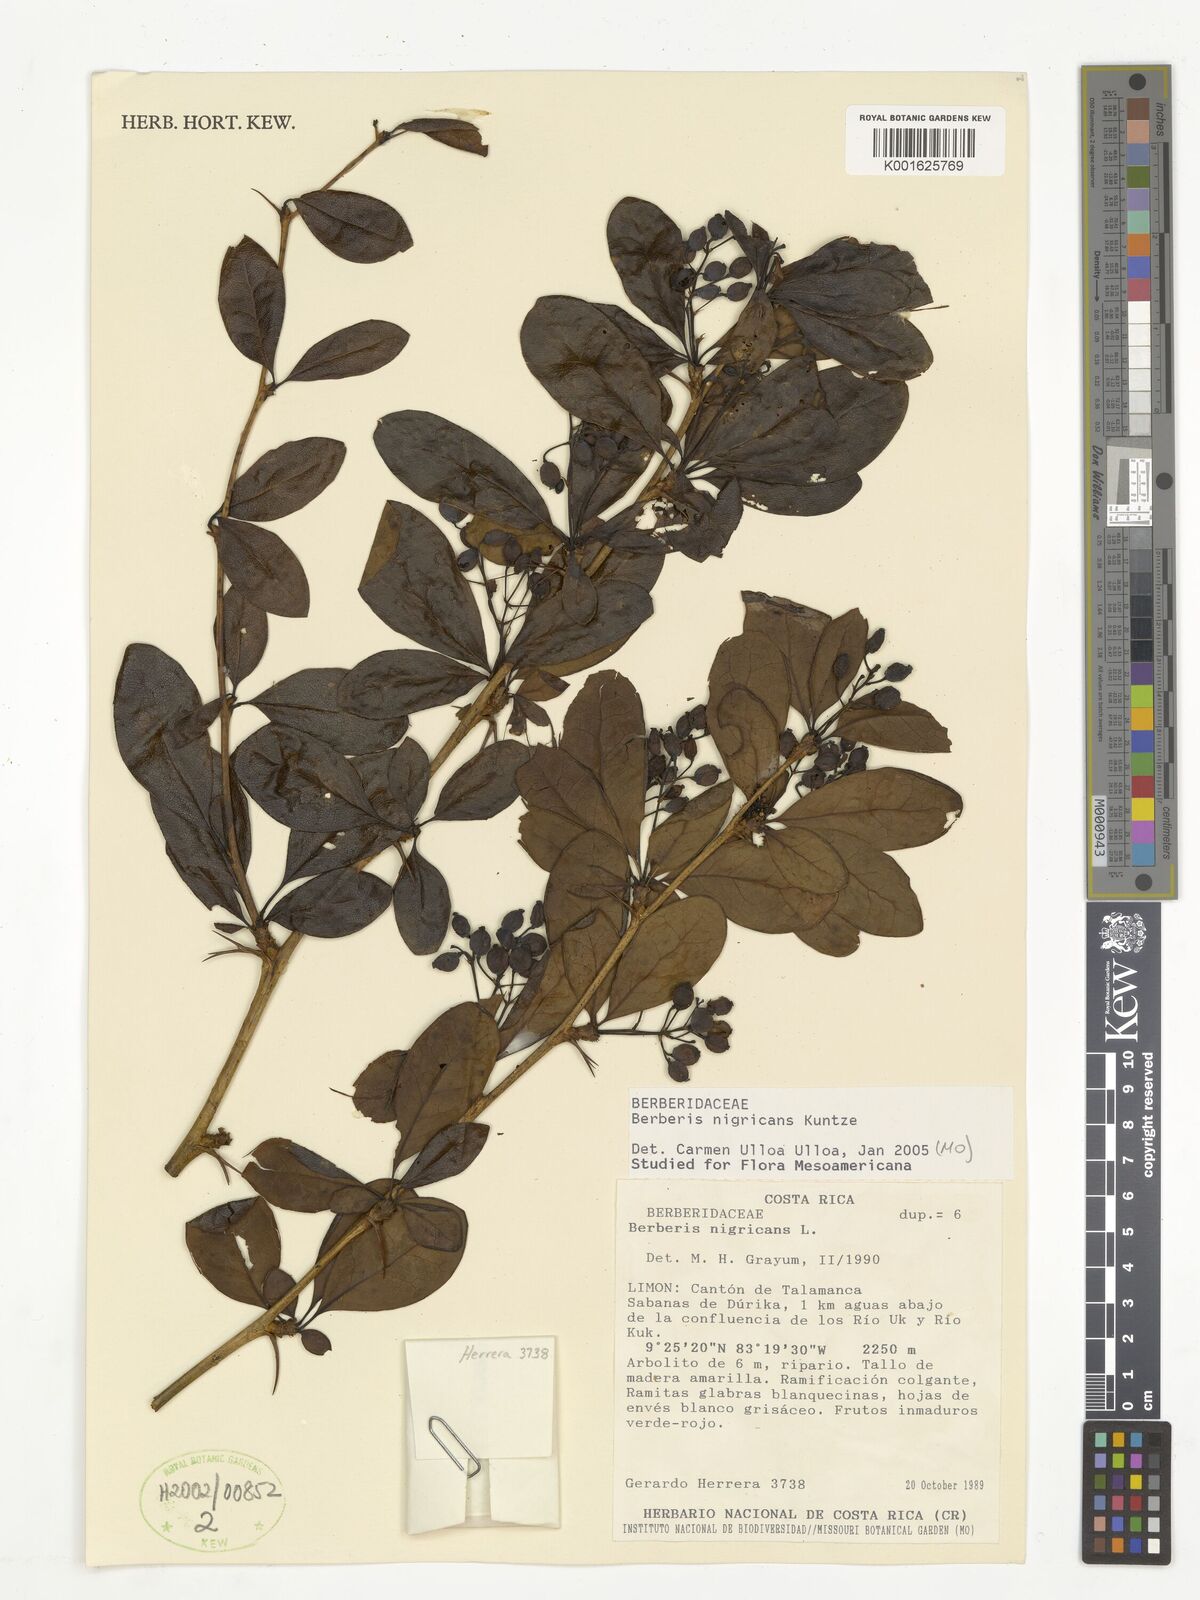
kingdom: Plantae
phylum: Tracheophyta
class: Magnoliopsida
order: Ranunculales
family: Berberidaceae
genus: Berberis
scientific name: Berberis nigricans
